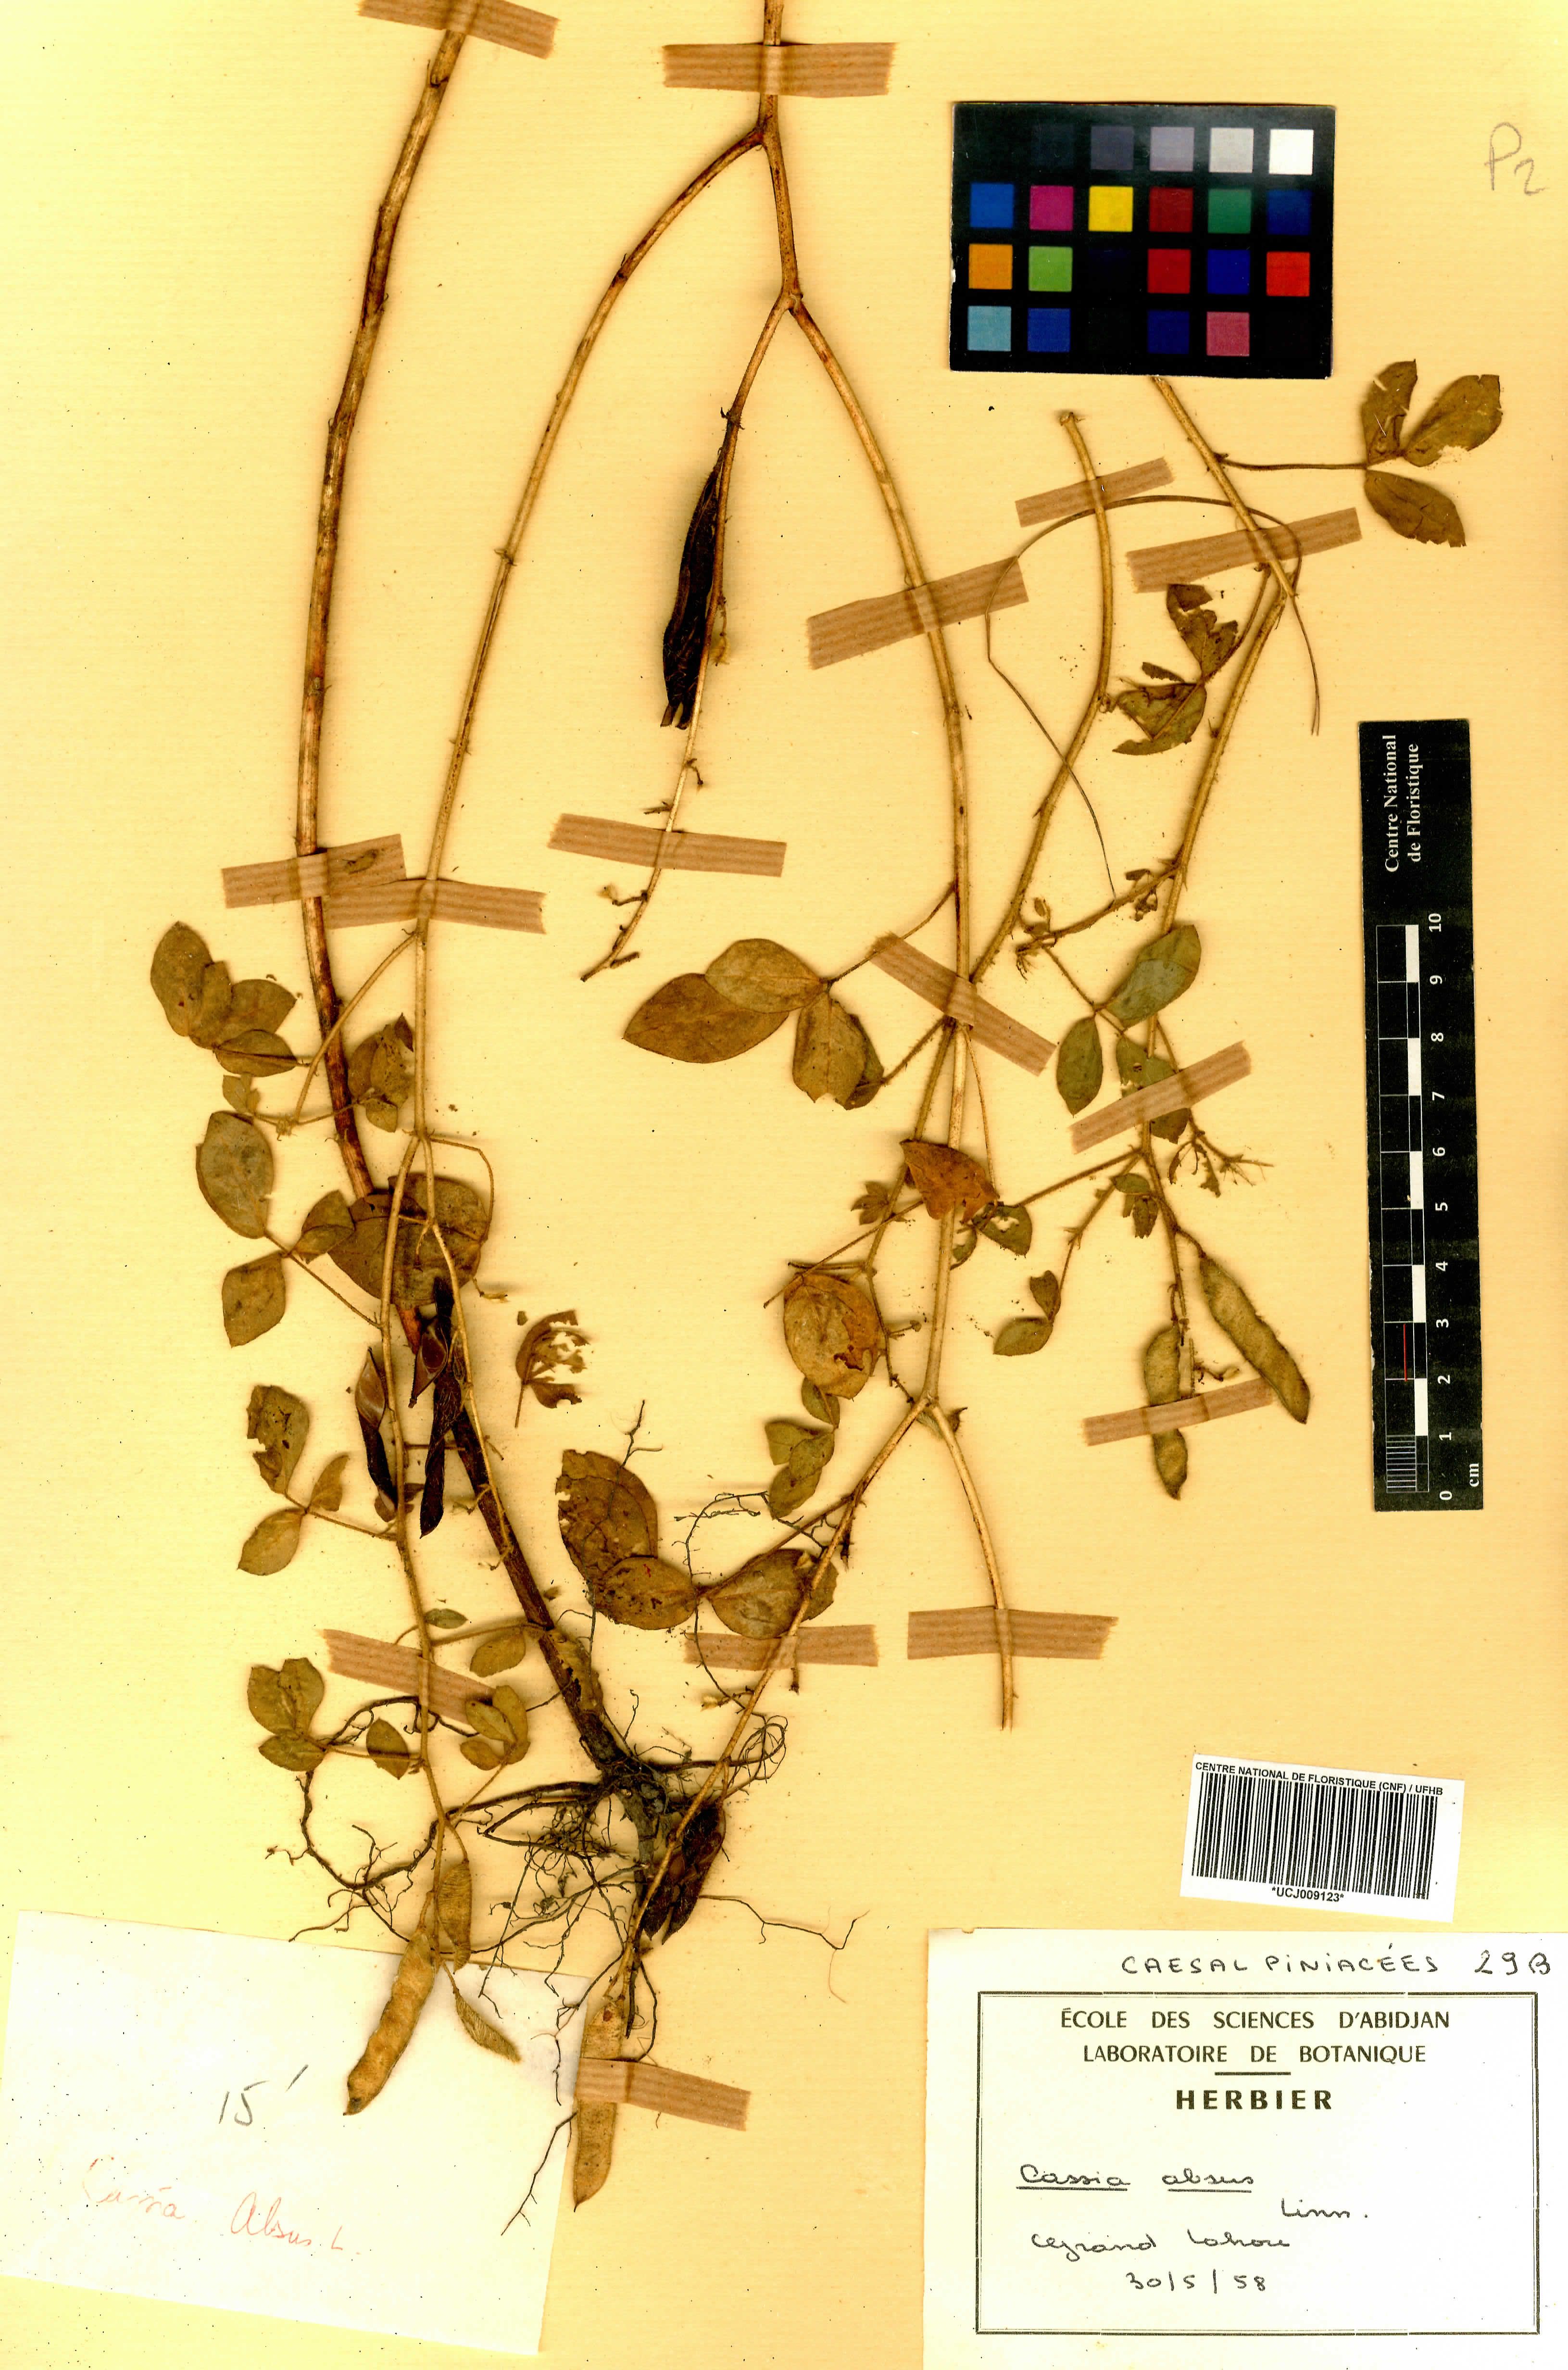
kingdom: Plantae
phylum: Tracheophyta
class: Magnoliopsida
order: Fabales
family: Fabaceae
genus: Chamaecrista
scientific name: Chamaecrista absus
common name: Tropical sensitive pea
